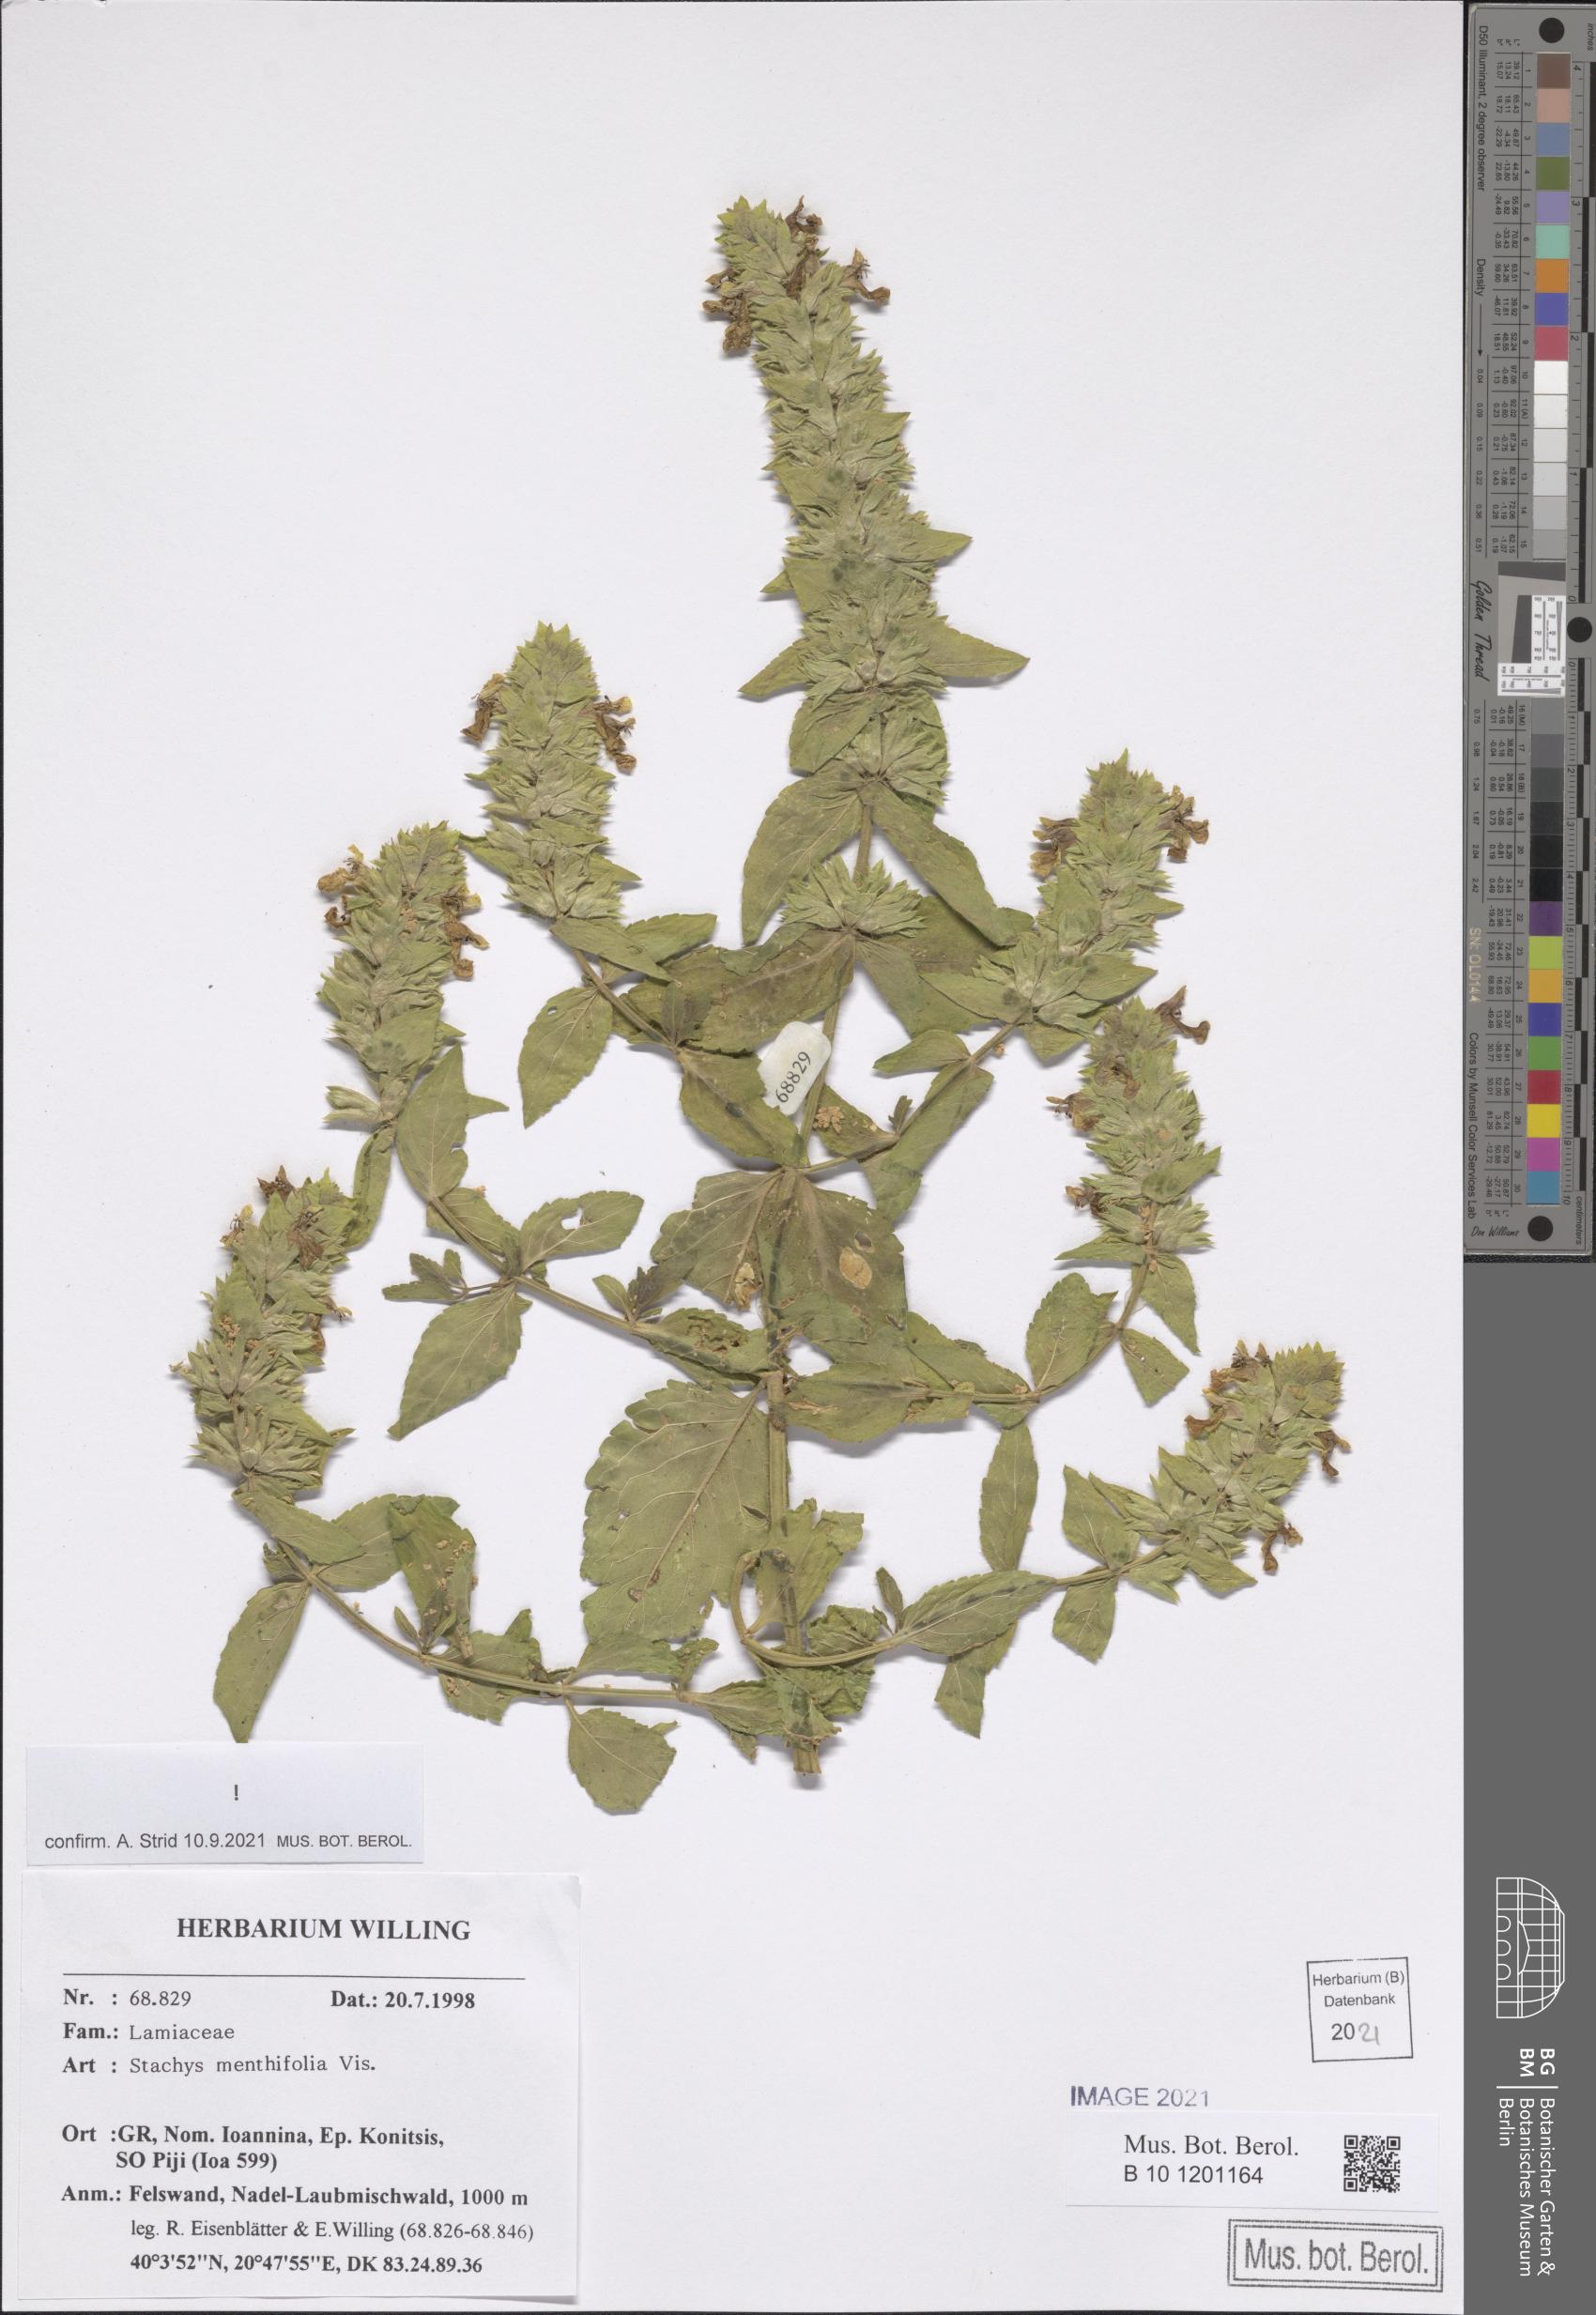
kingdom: Plantae
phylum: Tracheophyta
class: Magnoliopsida
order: Lamiales
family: Lamiaceae
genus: Stachys
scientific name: Stachys menthifolia
